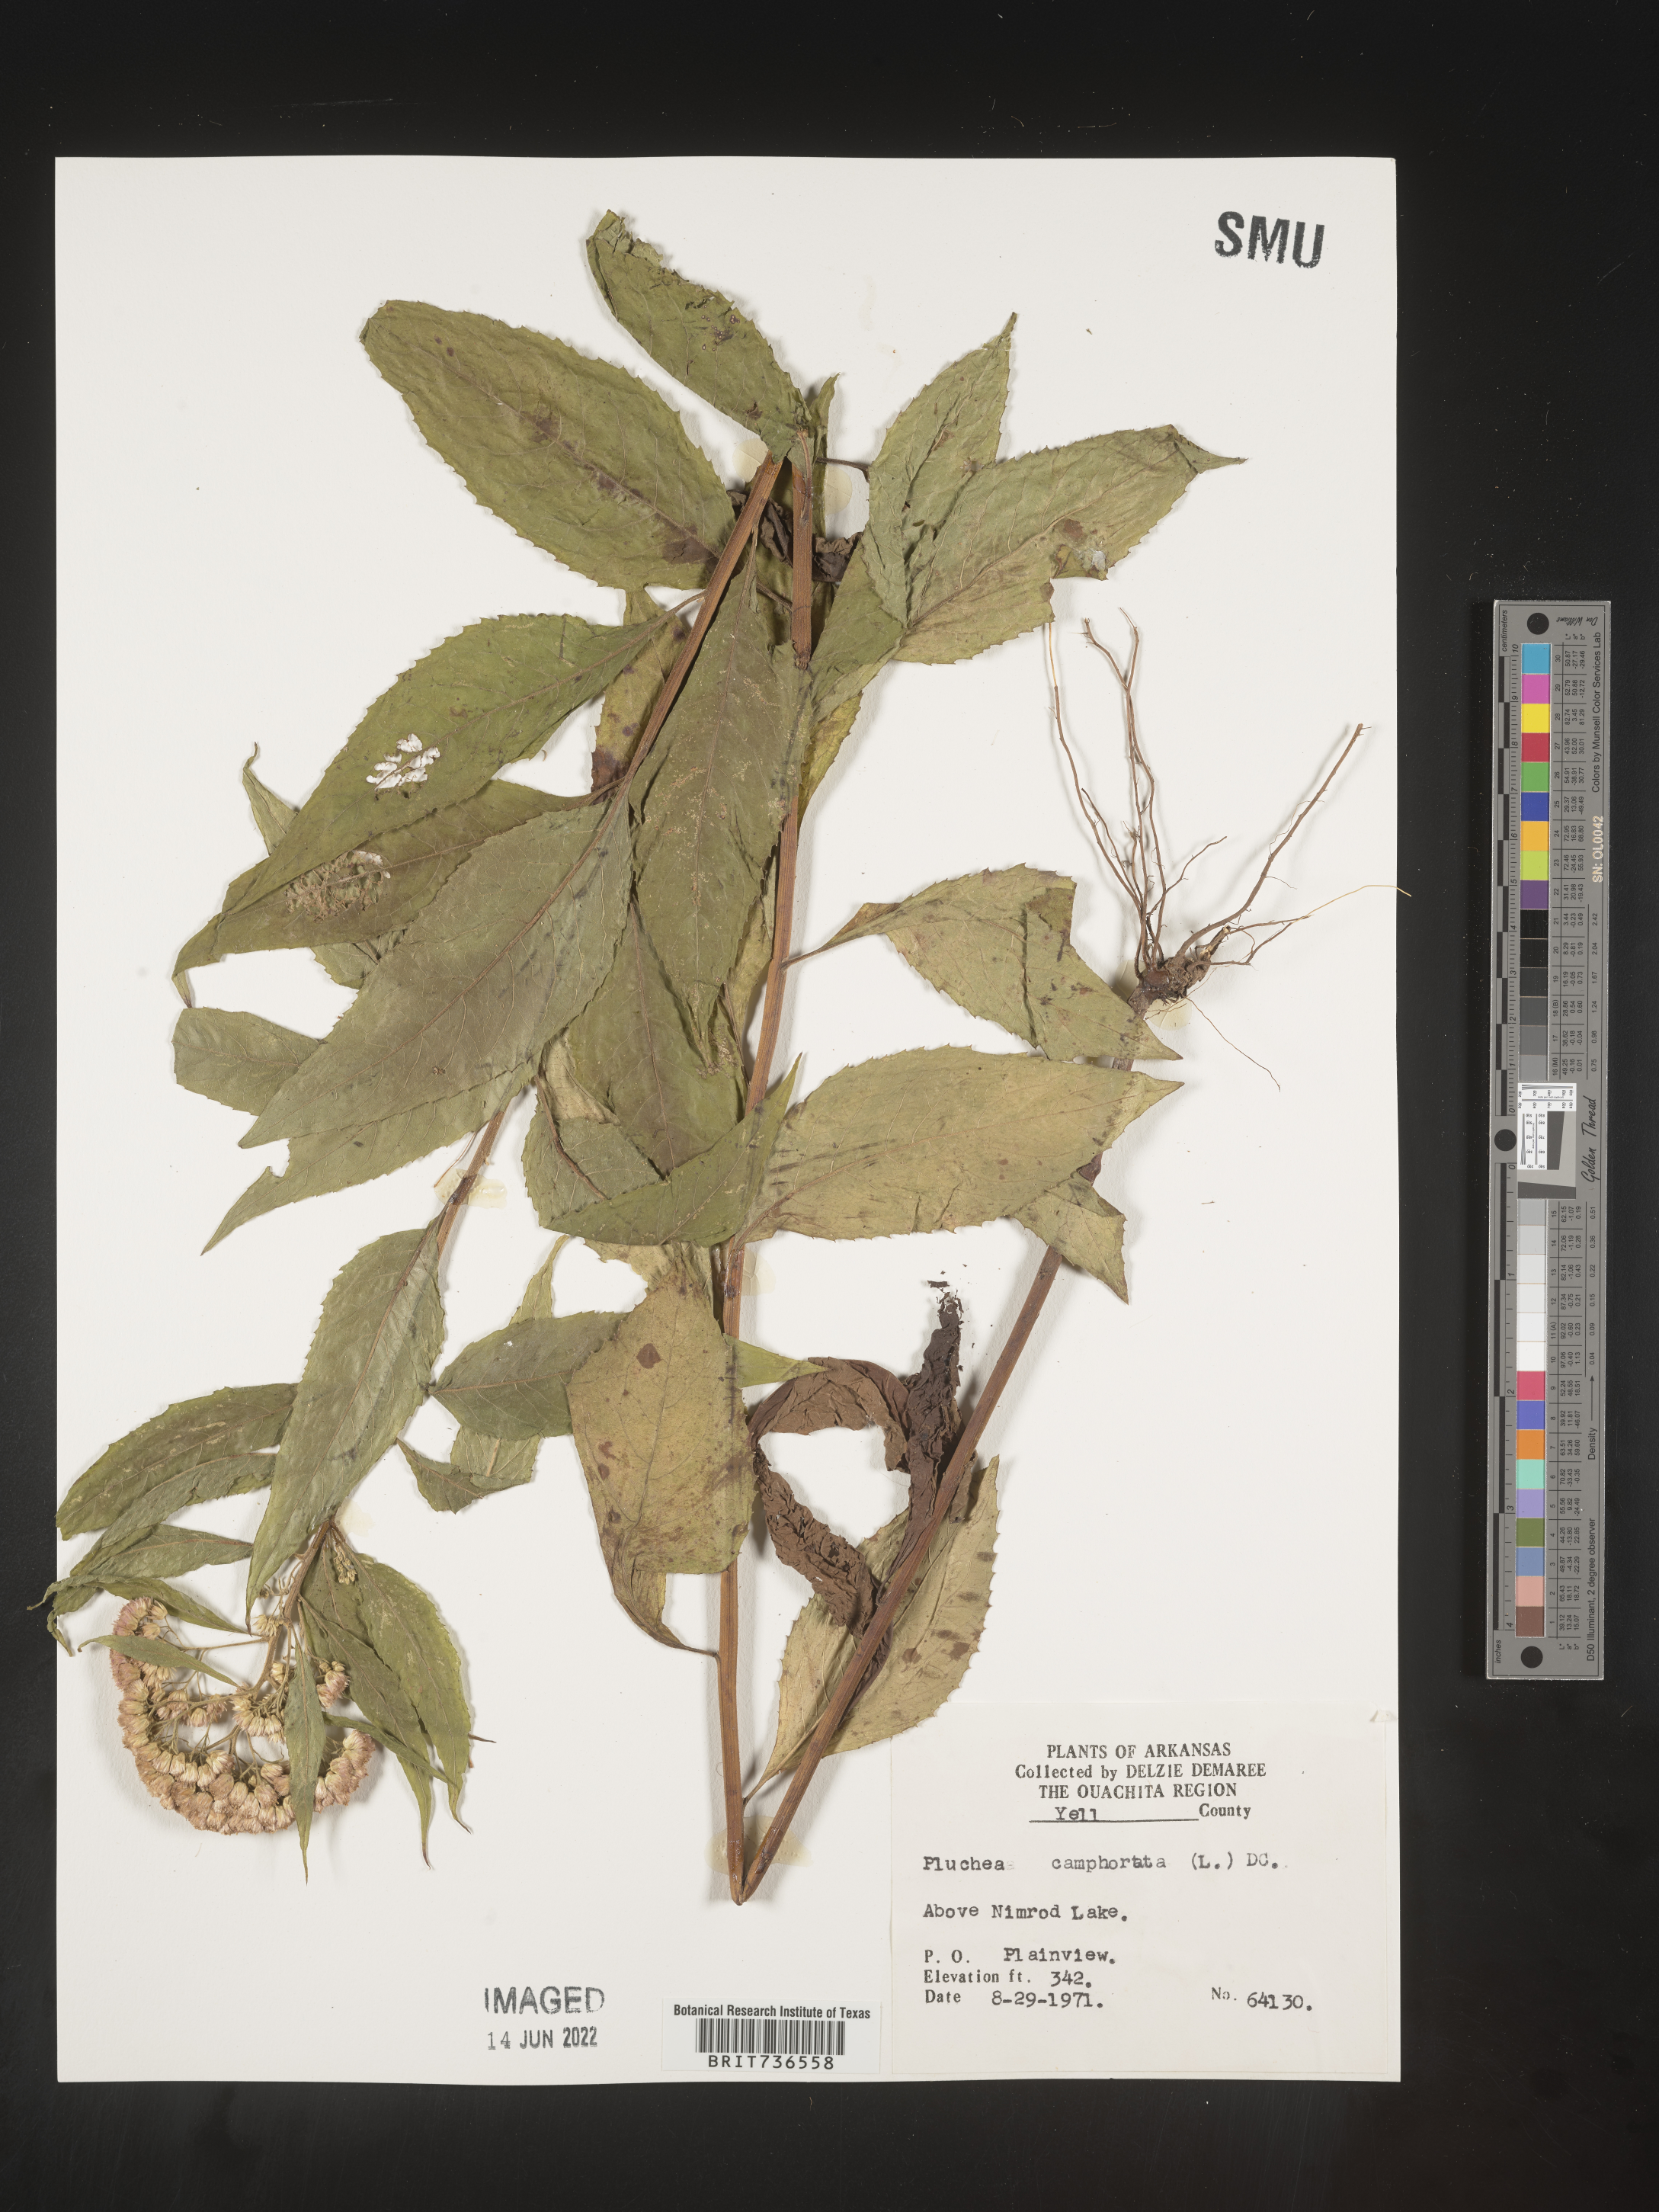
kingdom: Plantae
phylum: Tracheophyta
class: Magnoliopsida
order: Asterales
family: Asteraceae
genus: Pluchea
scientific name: Pluchea camphorata
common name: Camphor pluchea
